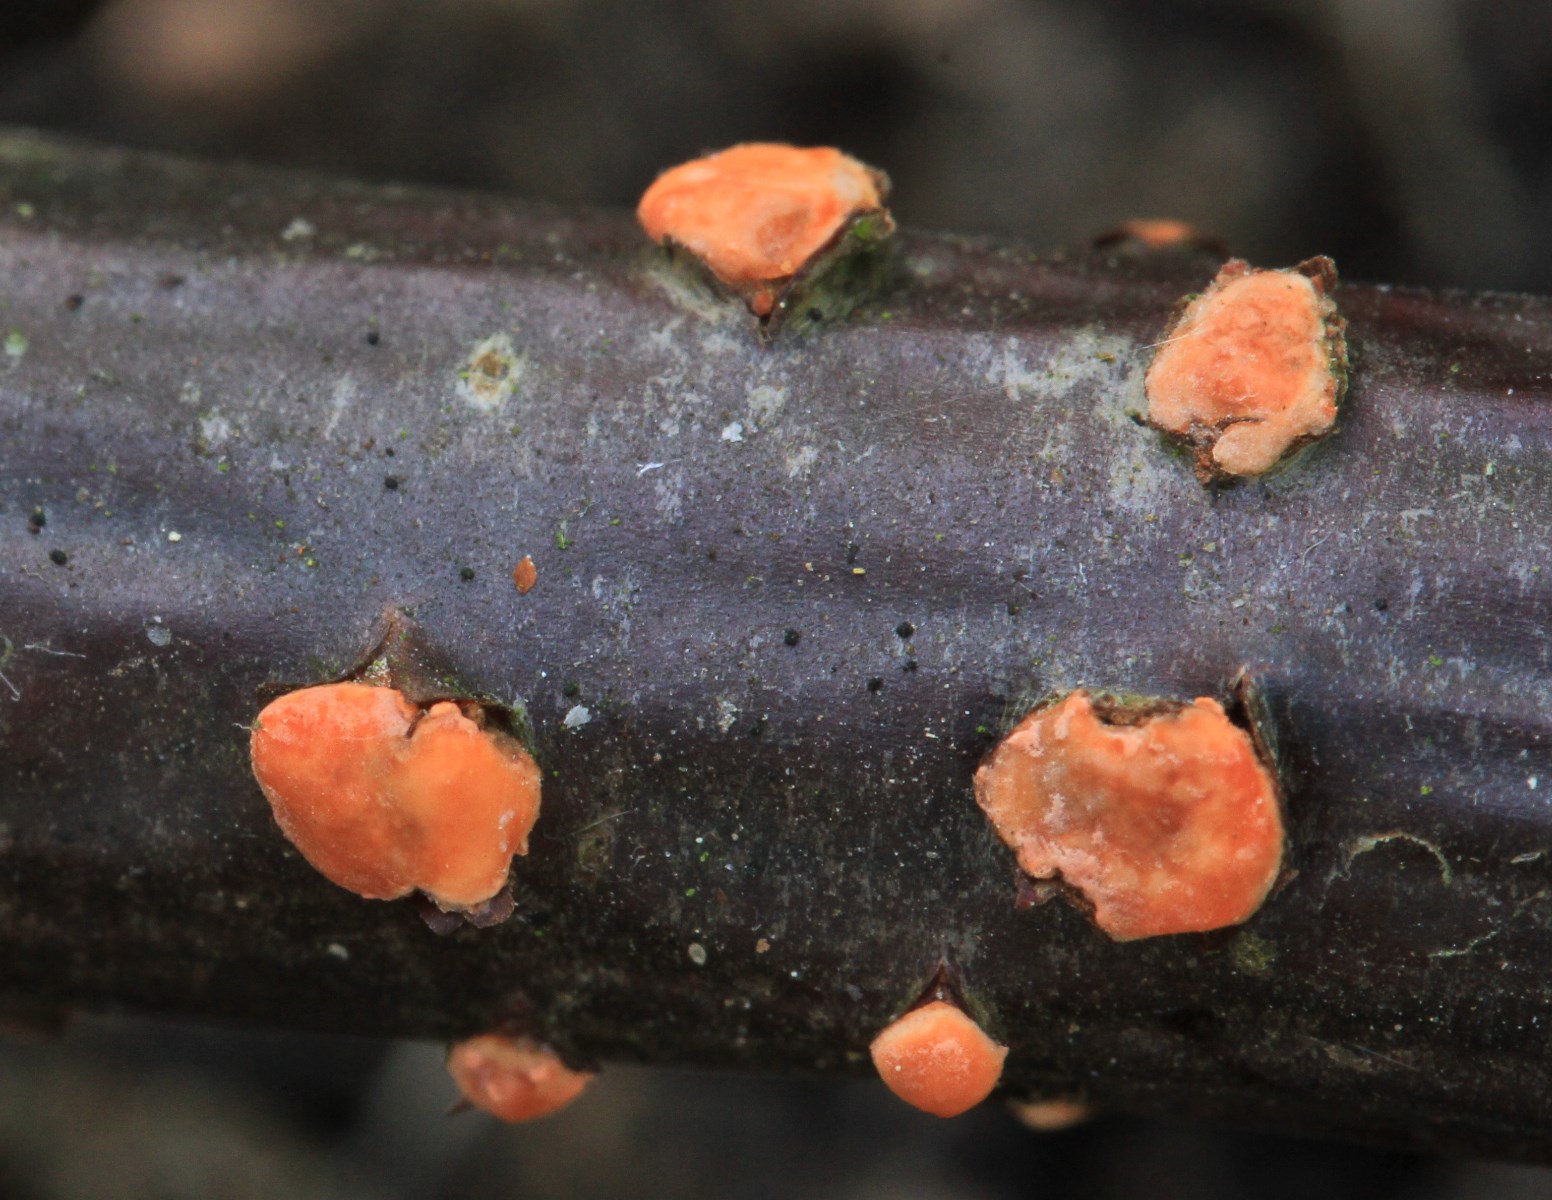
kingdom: Fungi
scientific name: Fungi
